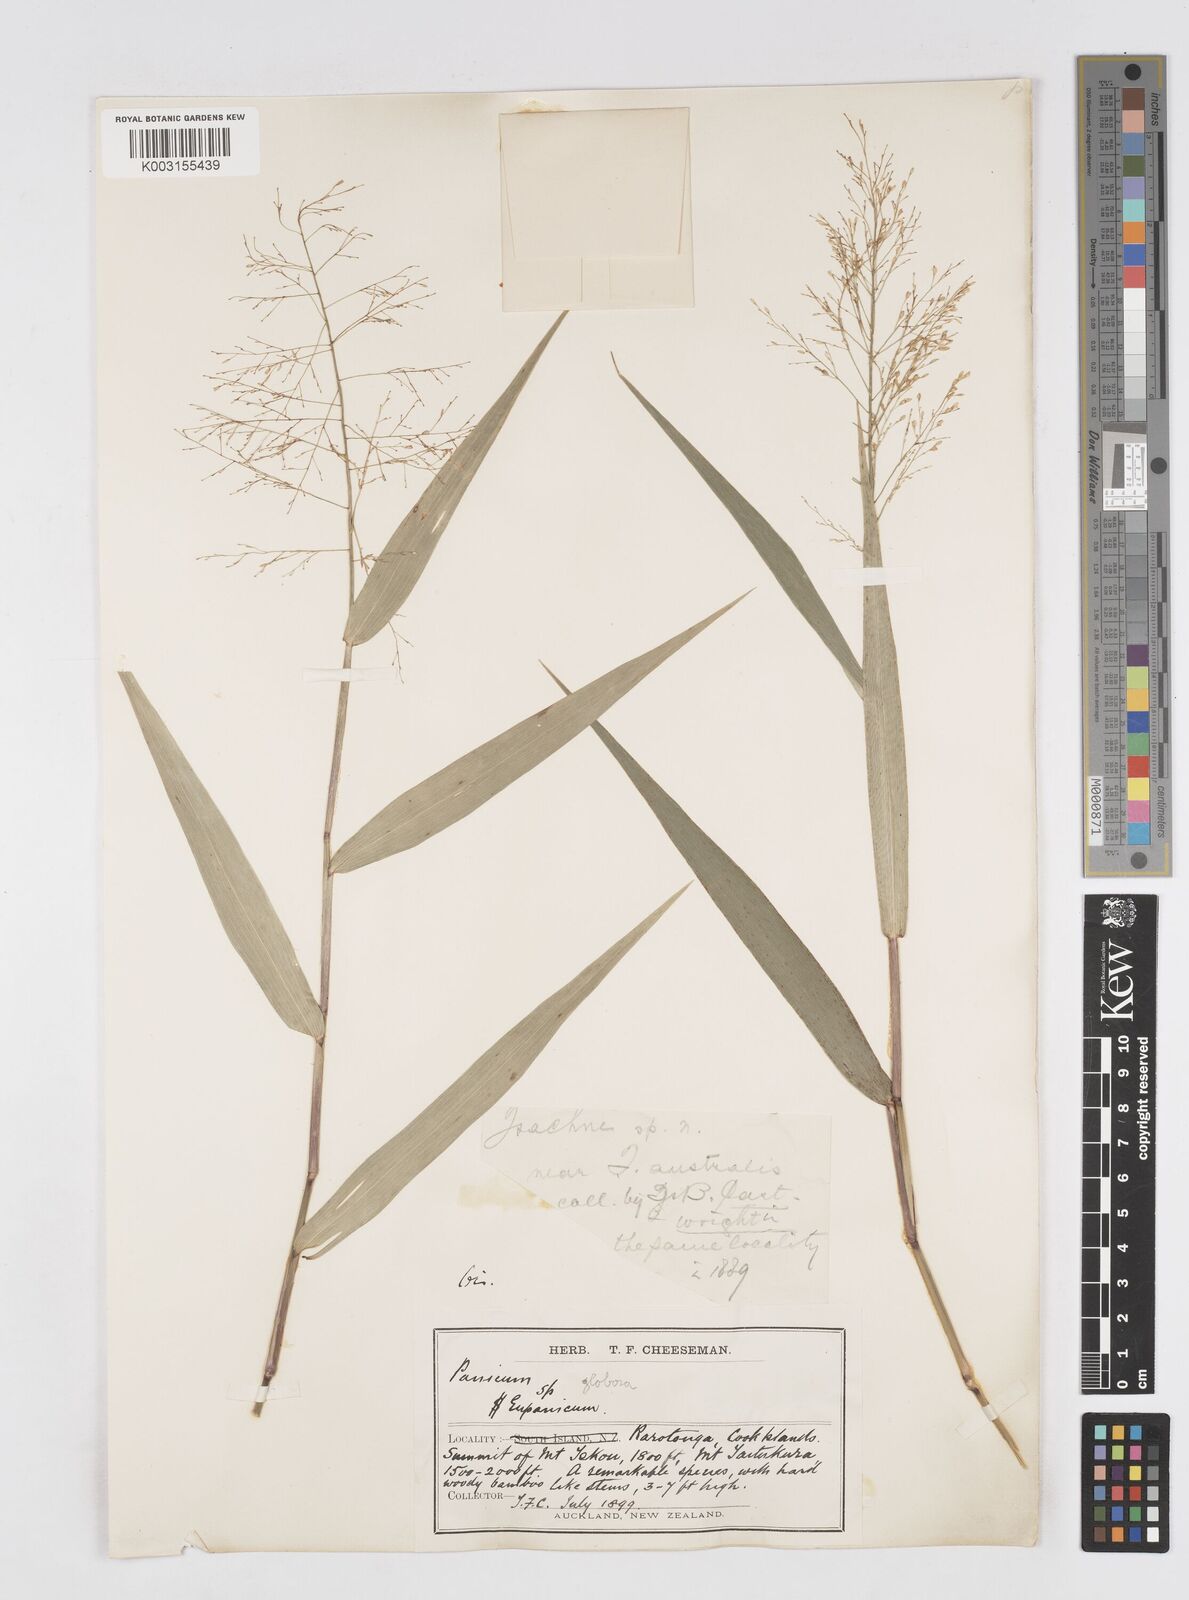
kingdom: Plantae
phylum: Tracheophyta
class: Liliopsida
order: Poales
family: Poaceae
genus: Isachne
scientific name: Isachne globosa
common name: Swamp millet
